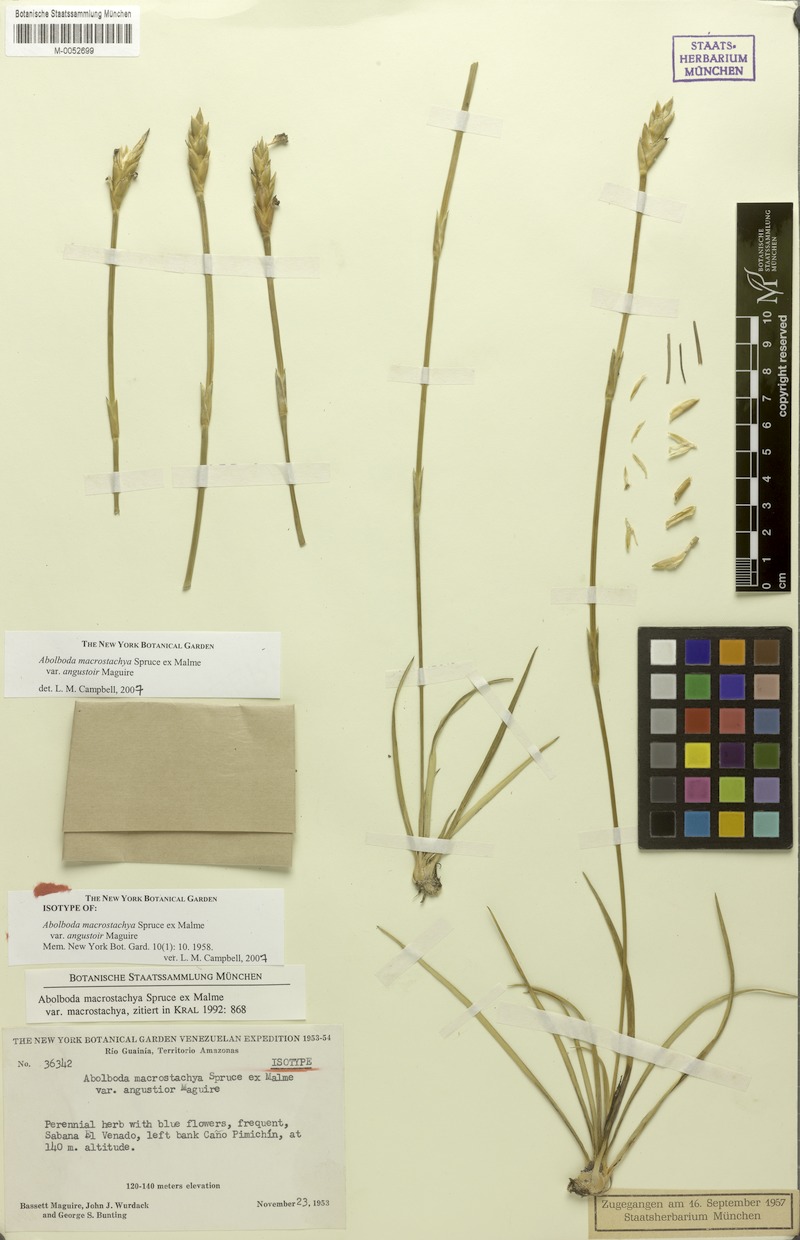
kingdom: Plantae
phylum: Tracheophyta
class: Liliopsida
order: Poales
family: Xyridaceae
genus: Abolboda
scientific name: Abolboda macrostachya
